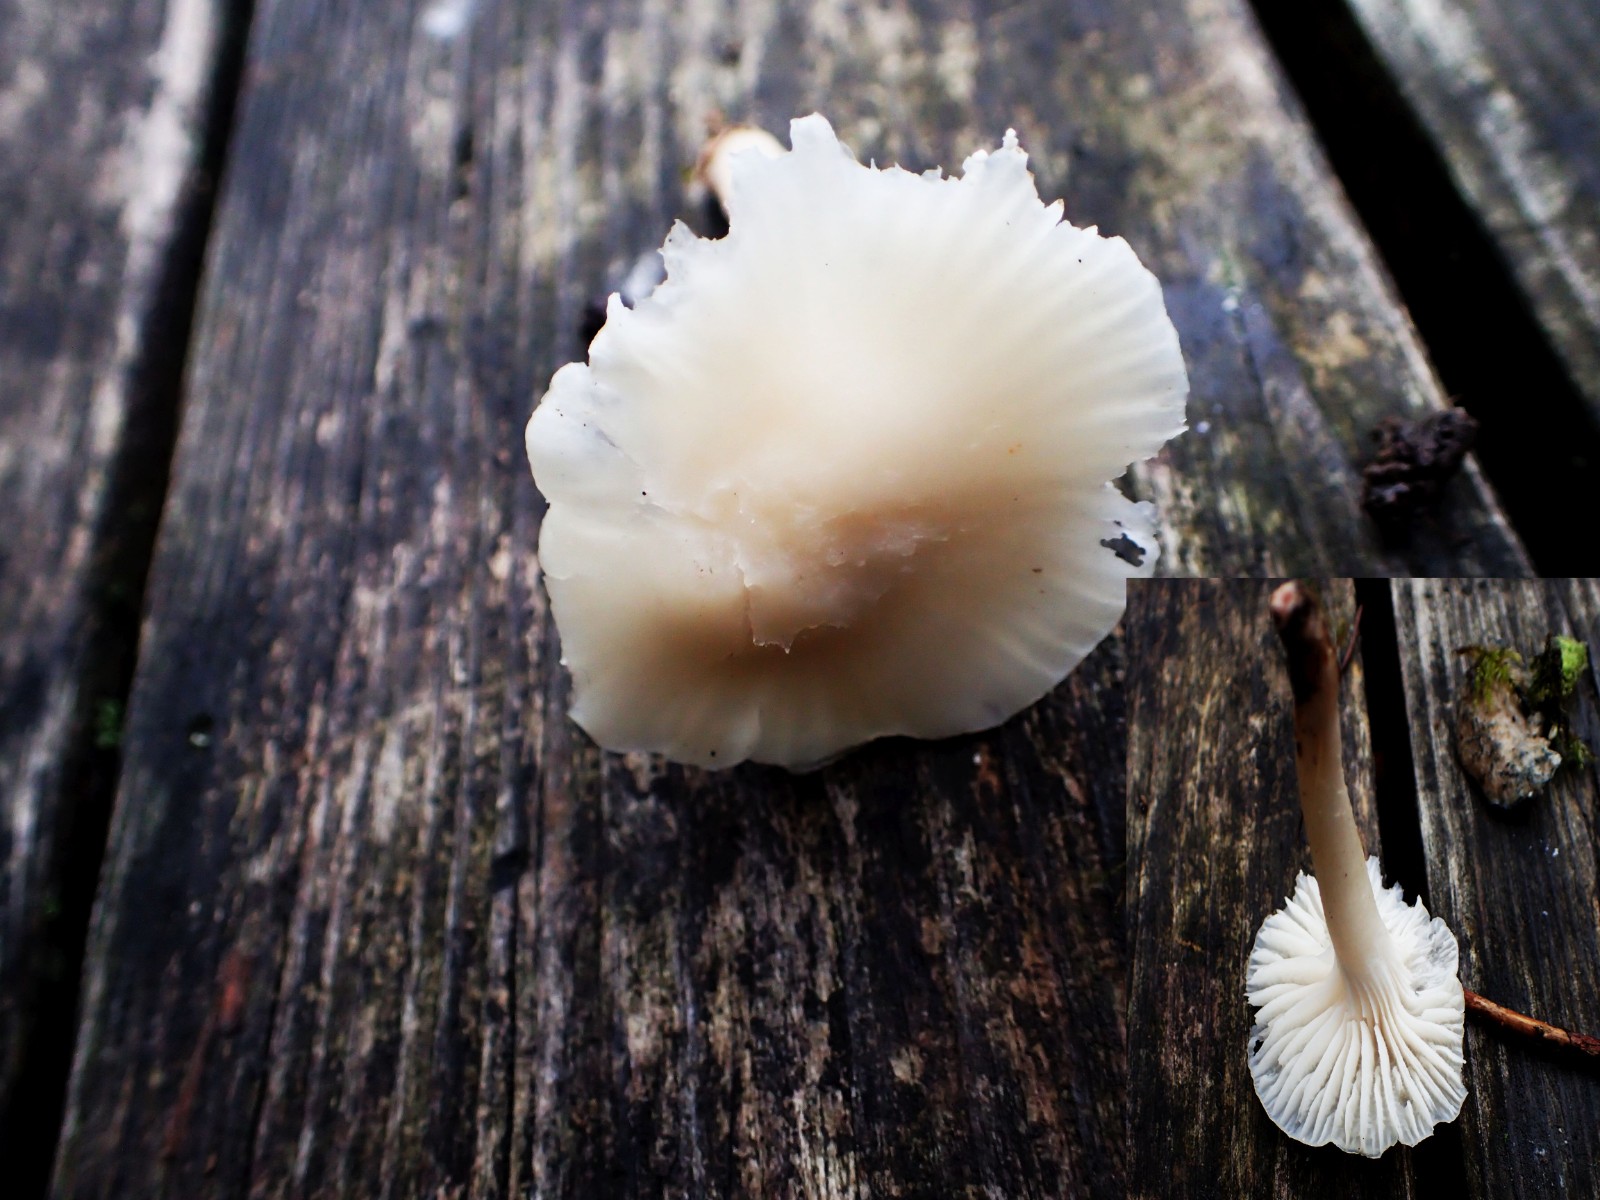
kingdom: Fungi
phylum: Basidiomycota
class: Agaricomycetes
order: Agaricales
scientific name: Agaricales
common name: champignonordenen
